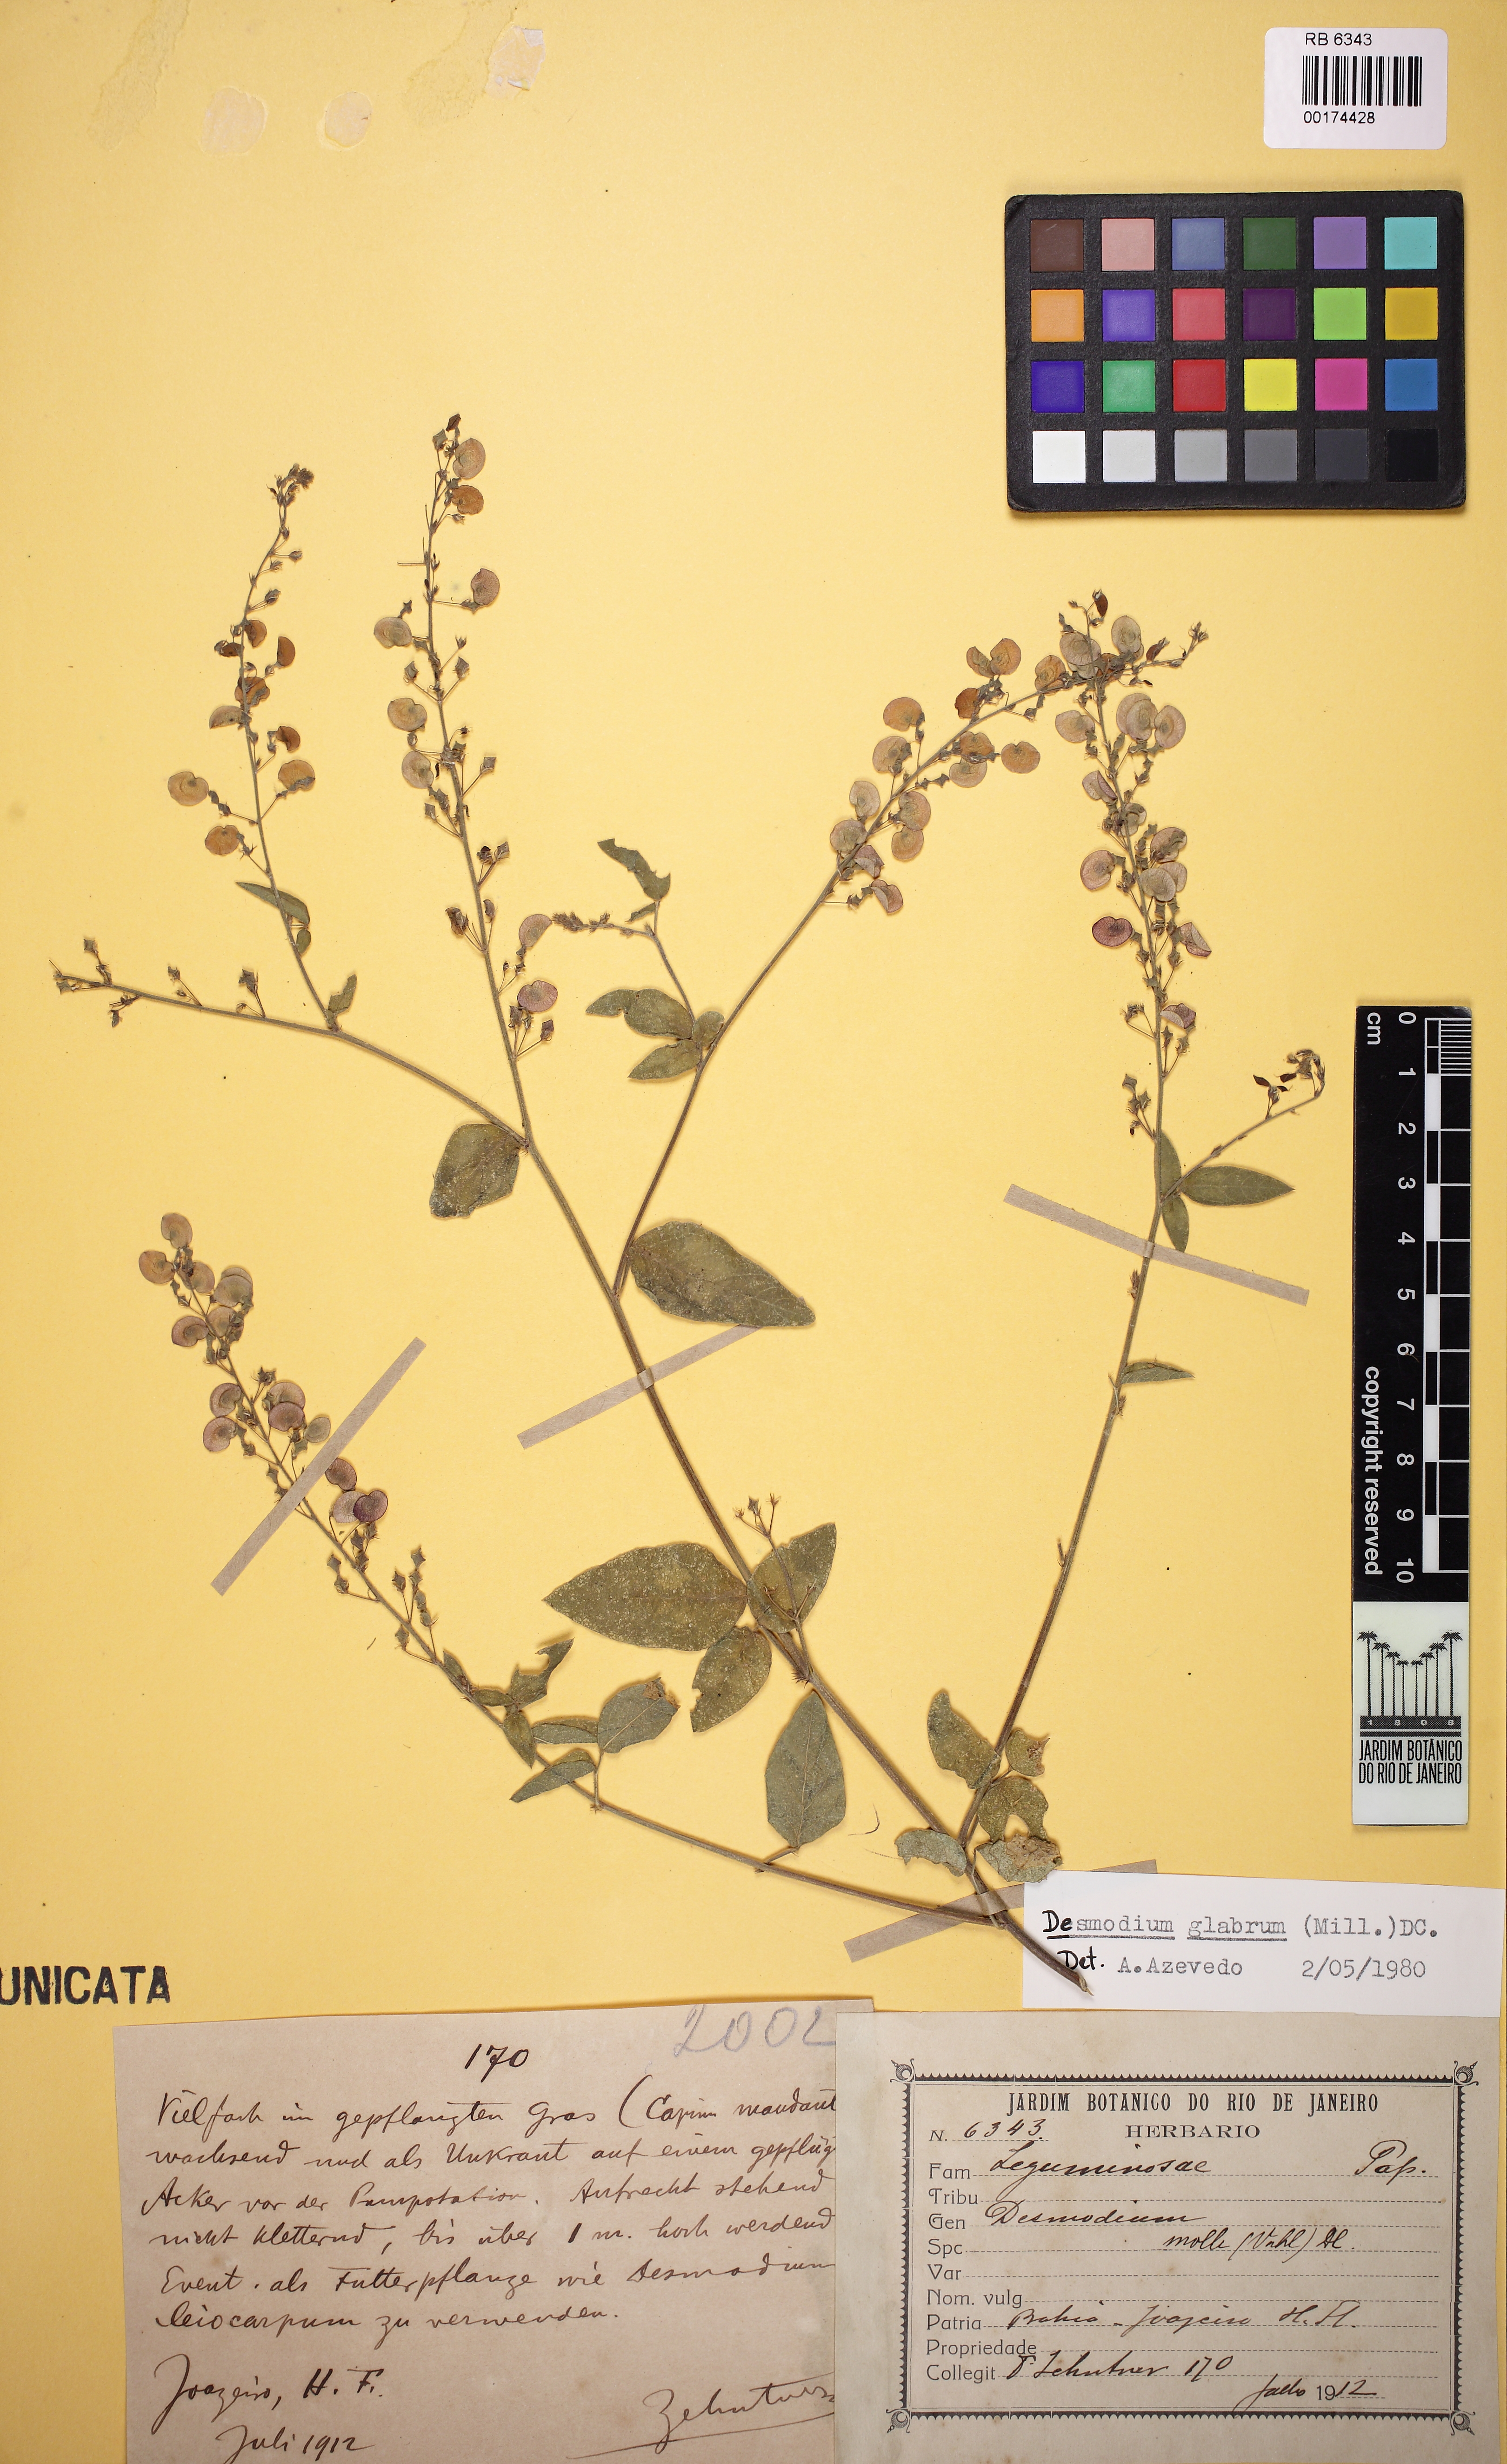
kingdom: Plantae
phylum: Tracheophyta
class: Magnoliopsida
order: Fabales
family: Fabaceae
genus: Desmodium
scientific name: Desmodium limense
